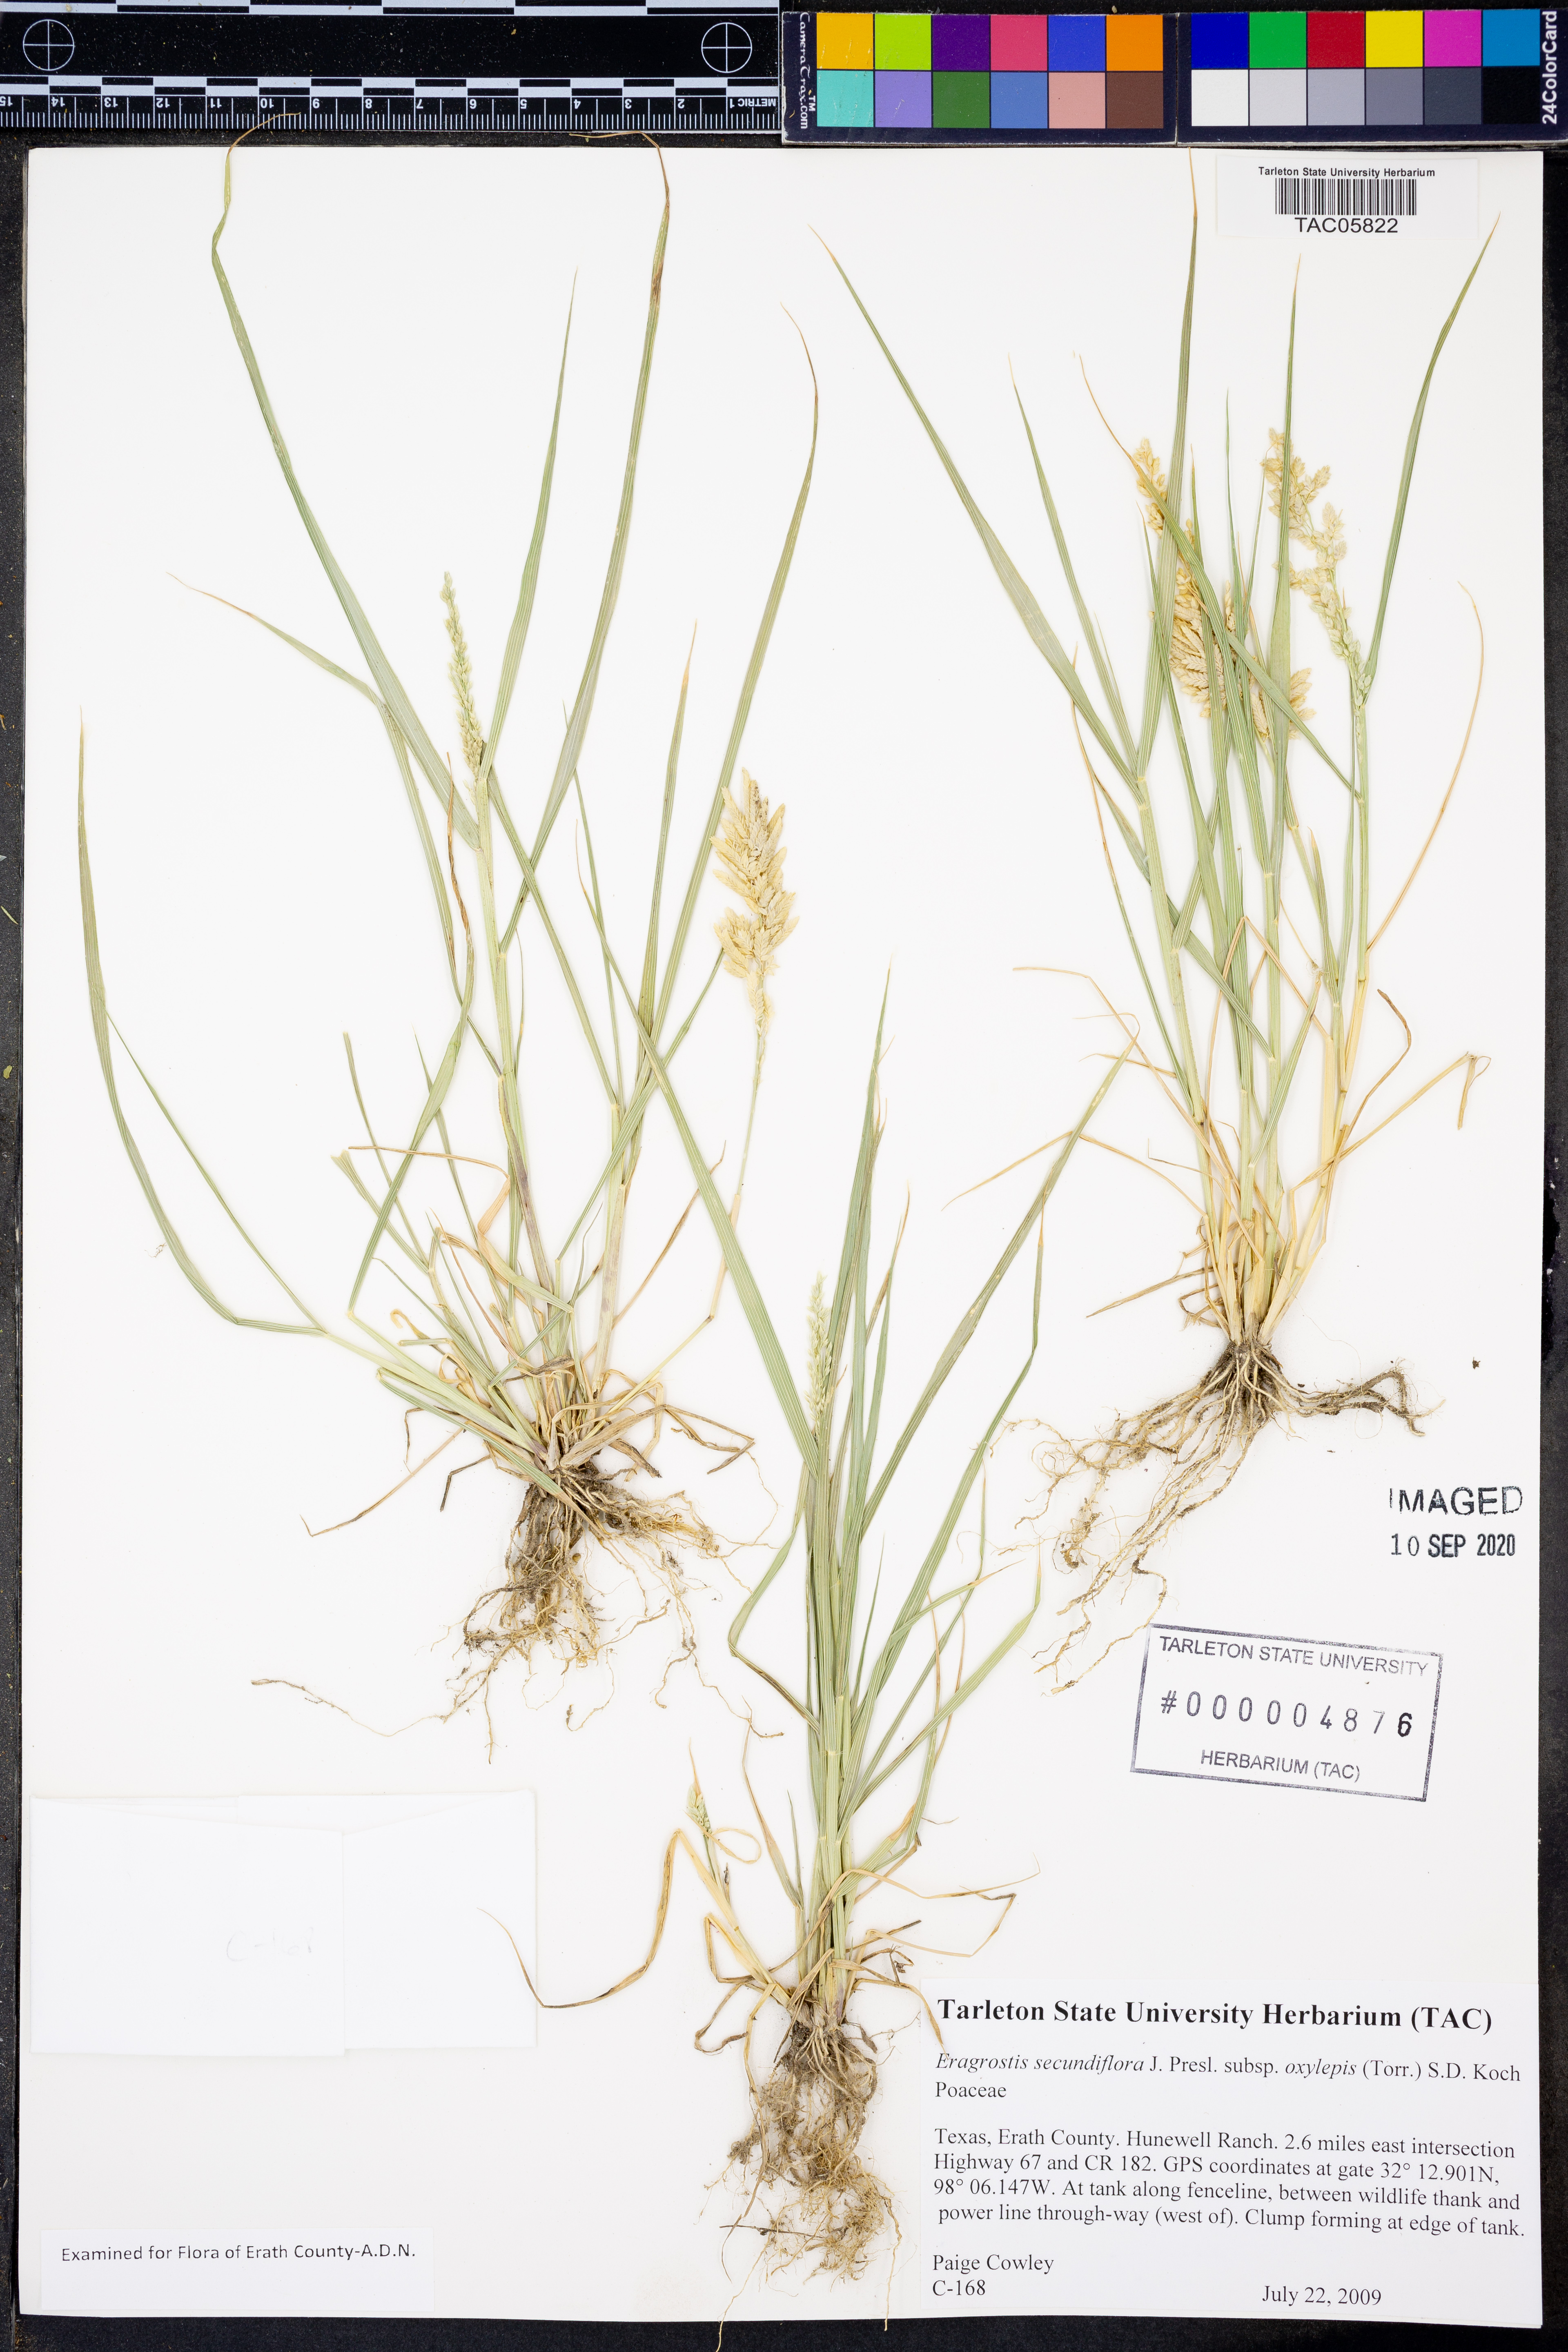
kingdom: Plantae
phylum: Tracheophyta
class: Liliopsida
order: Poales
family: Poaceae
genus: Eragrostis
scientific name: Eragrostis secundiflora
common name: Red love grass
